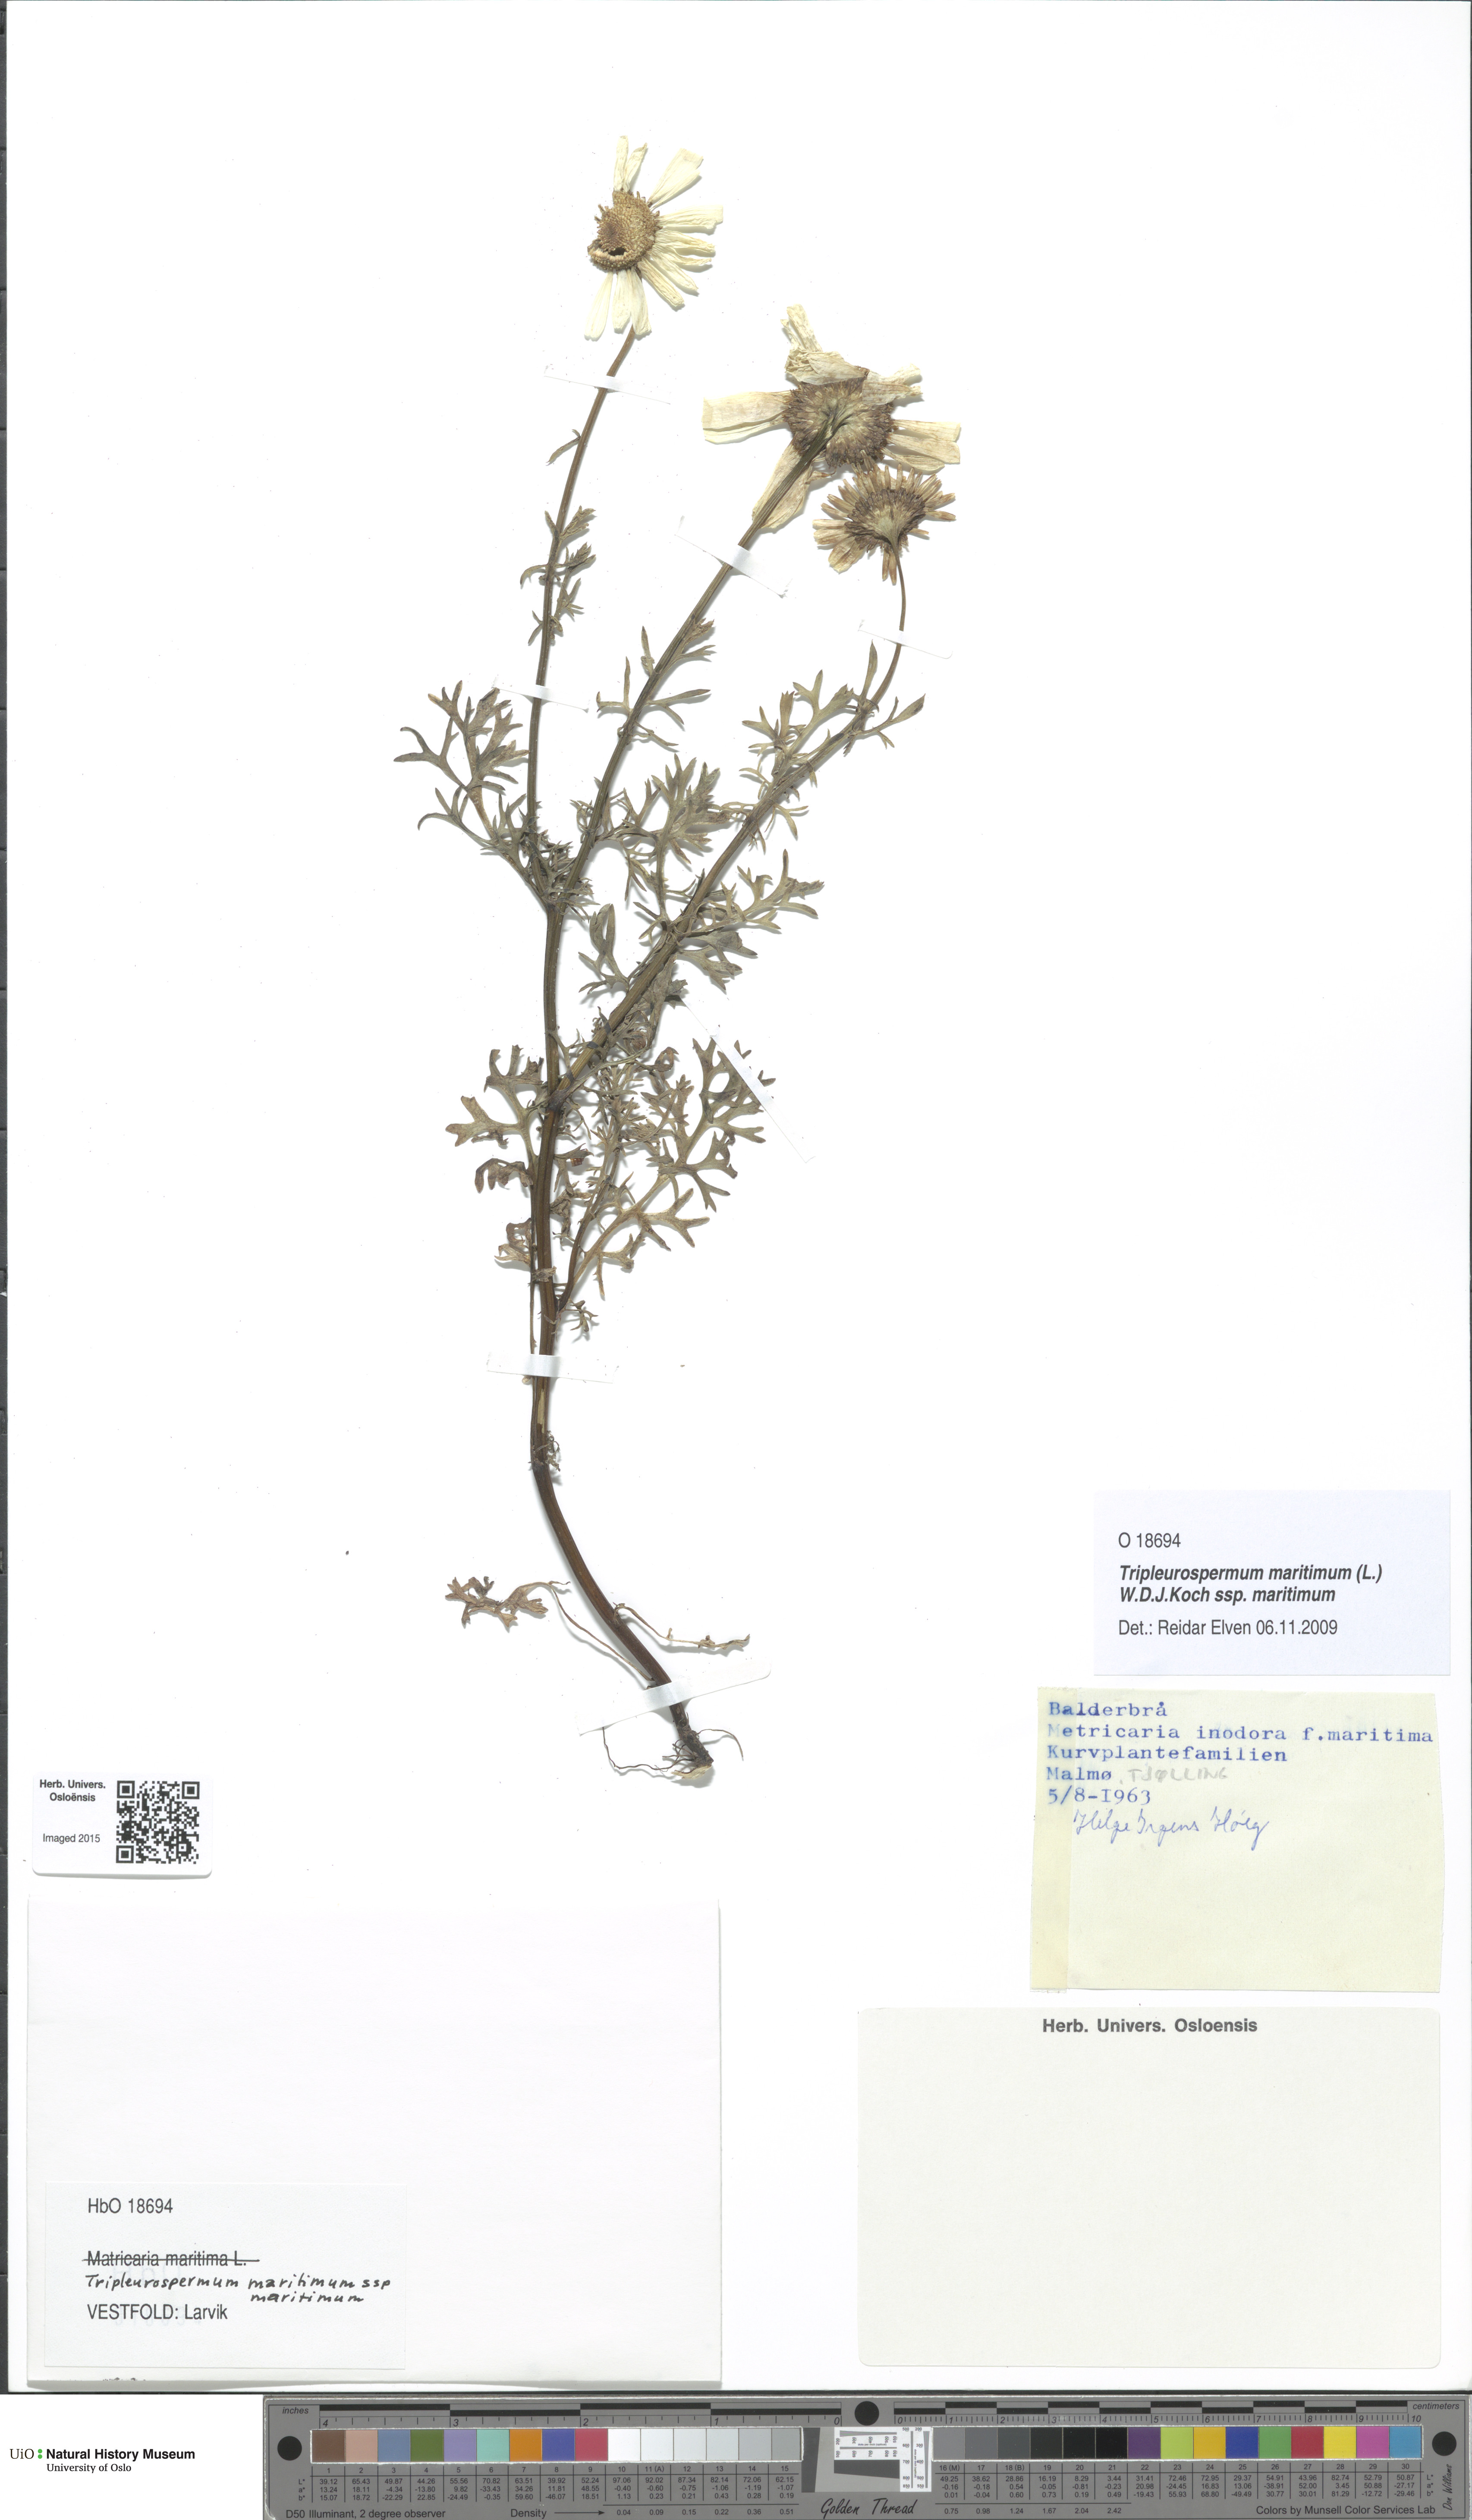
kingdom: Plantae
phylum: Tracheophyta
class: Magnoliopsida
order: Asterales
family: Asteraceae
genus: Tripleurospermum
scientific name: Tripleurospermum maritimum
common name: Sea mayweed
